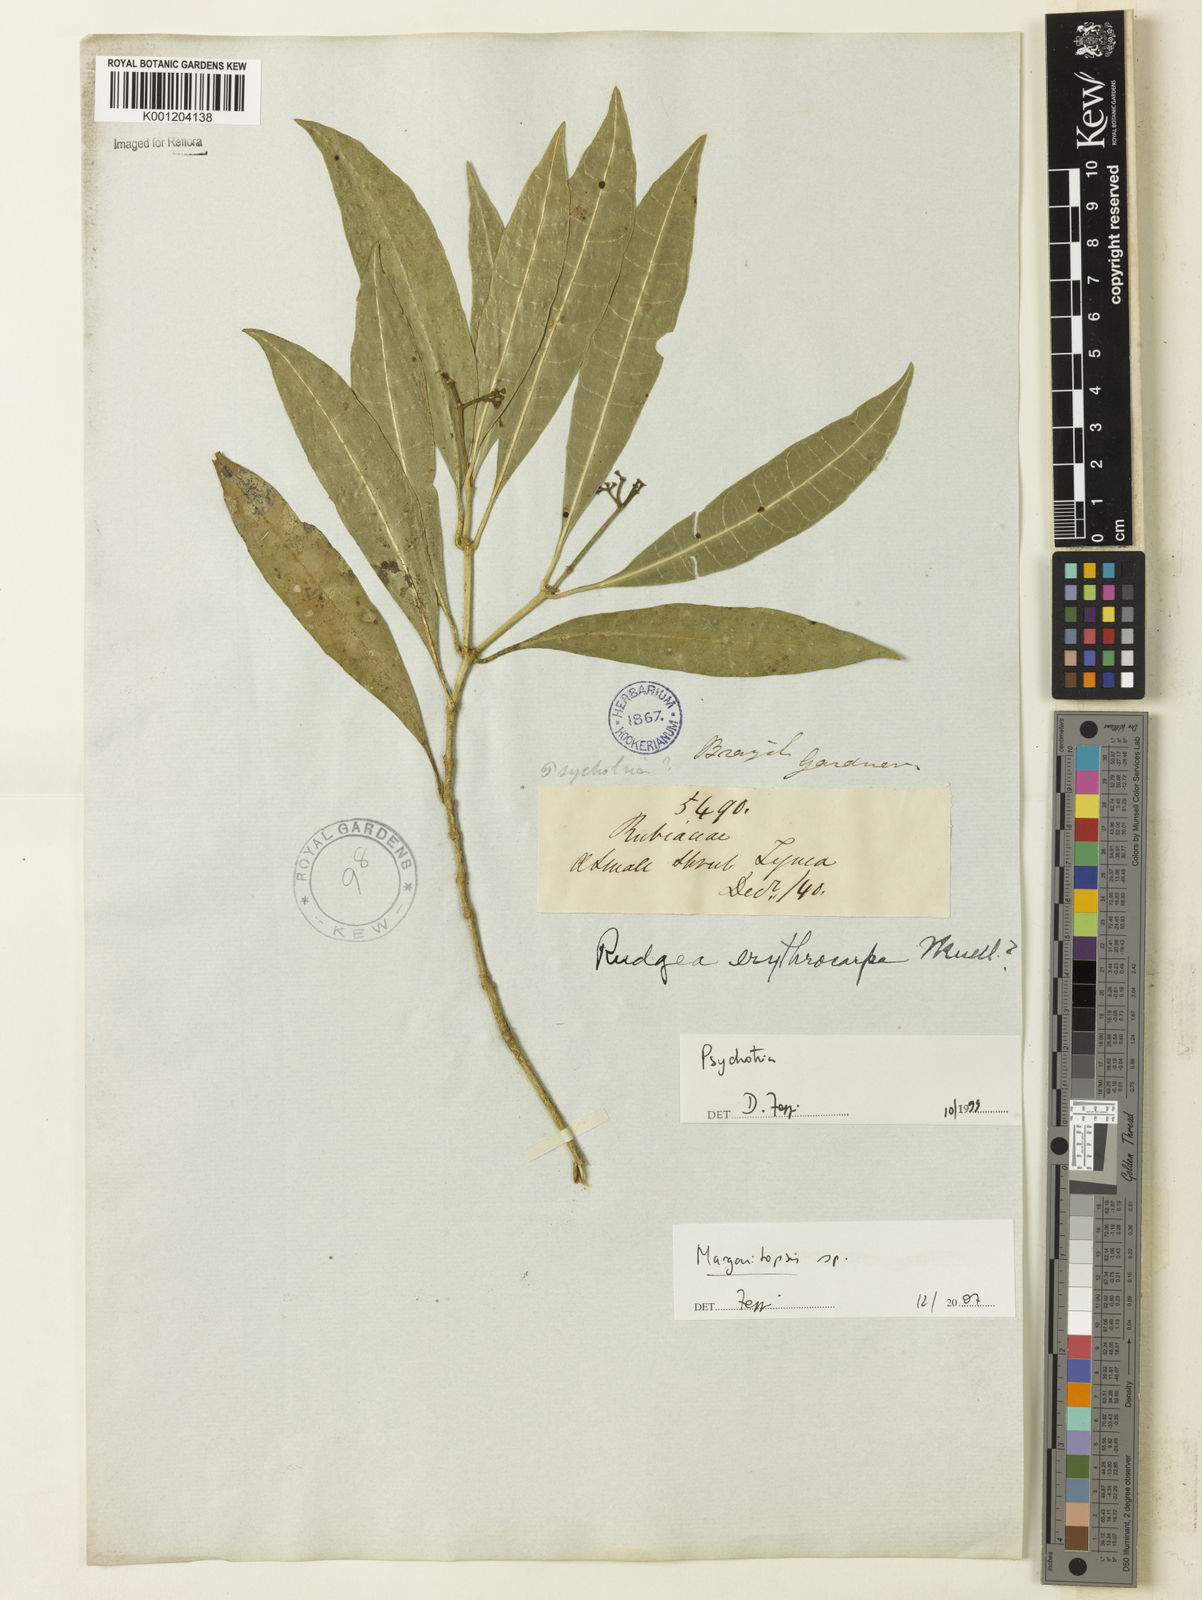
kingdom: Plantae
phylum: Tracheophyta
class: Magnoliopsida
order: Gentianales
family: Rubiaceae
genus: Eumachia
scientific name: Eumachia
